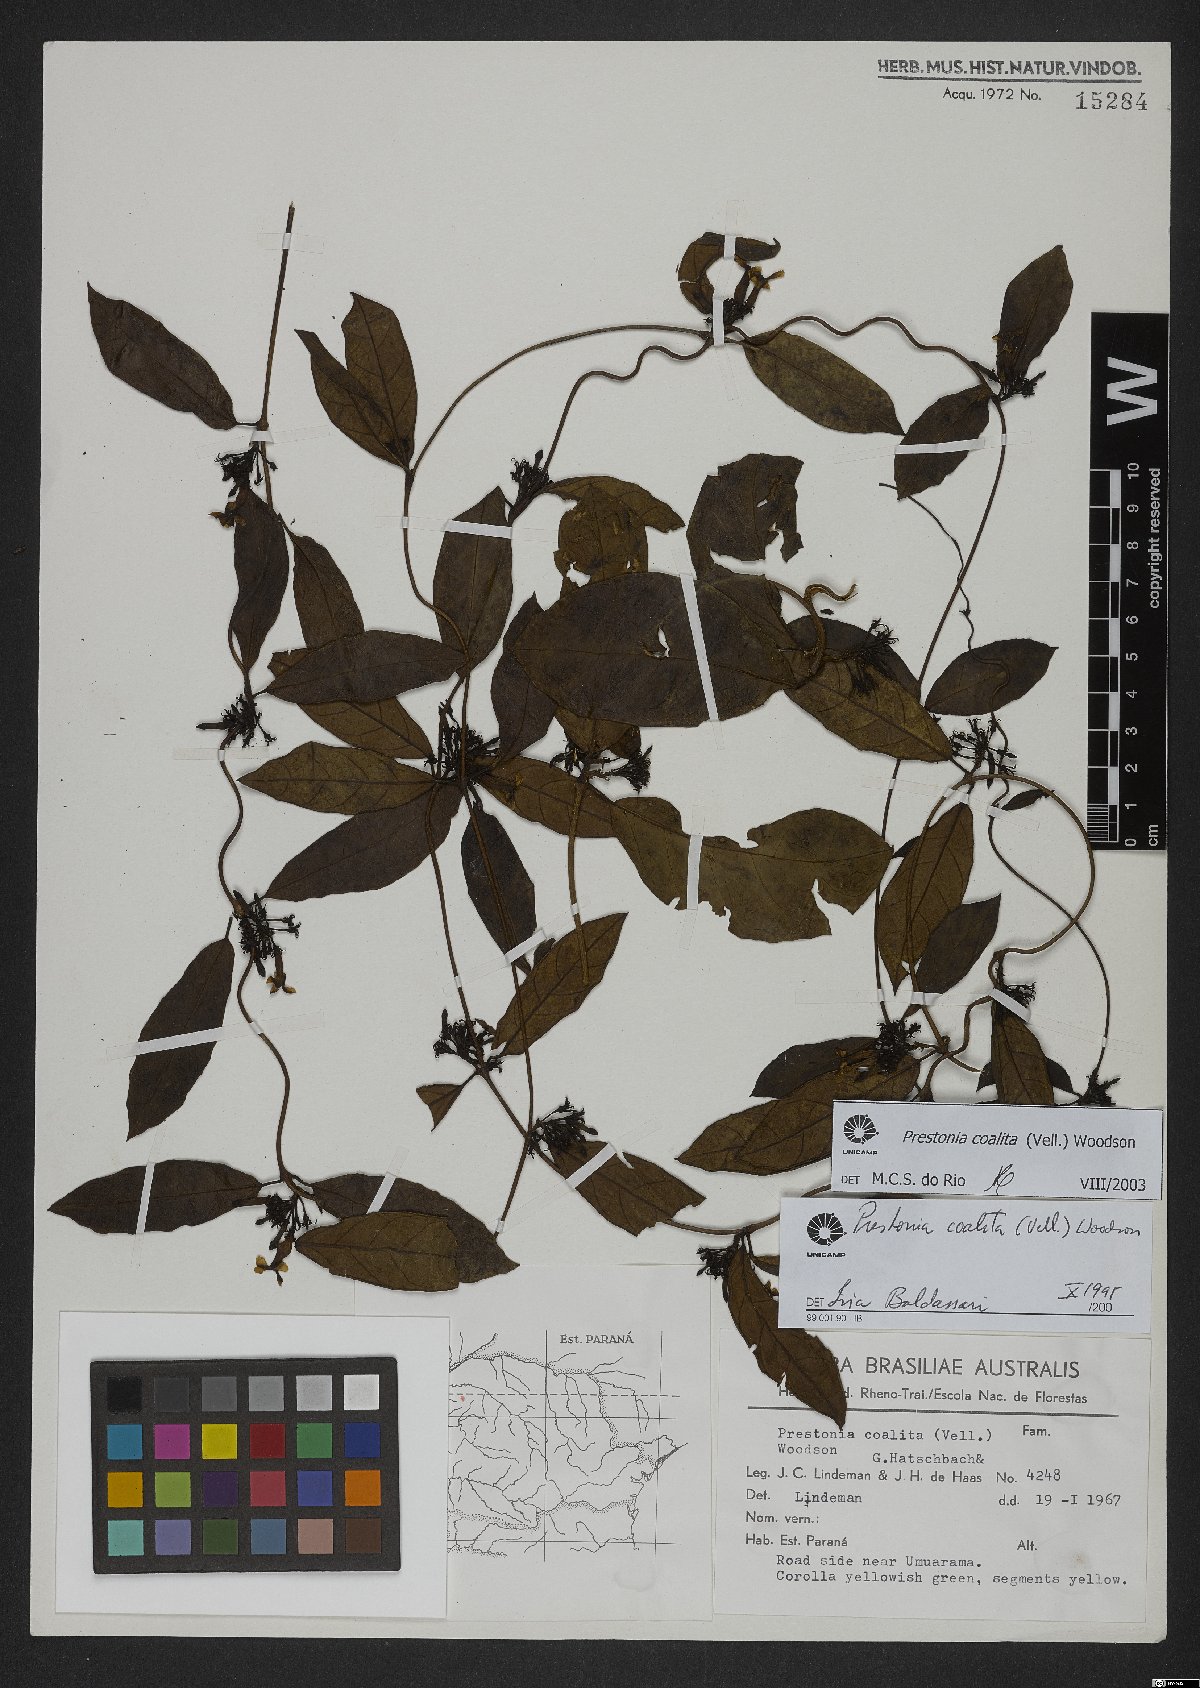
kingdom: Plantae
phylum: Tracheophyta
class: Magnoliopsida
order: Gentianales
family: Apocynaceae
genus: Prestonia
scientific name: Prestonia coalita
